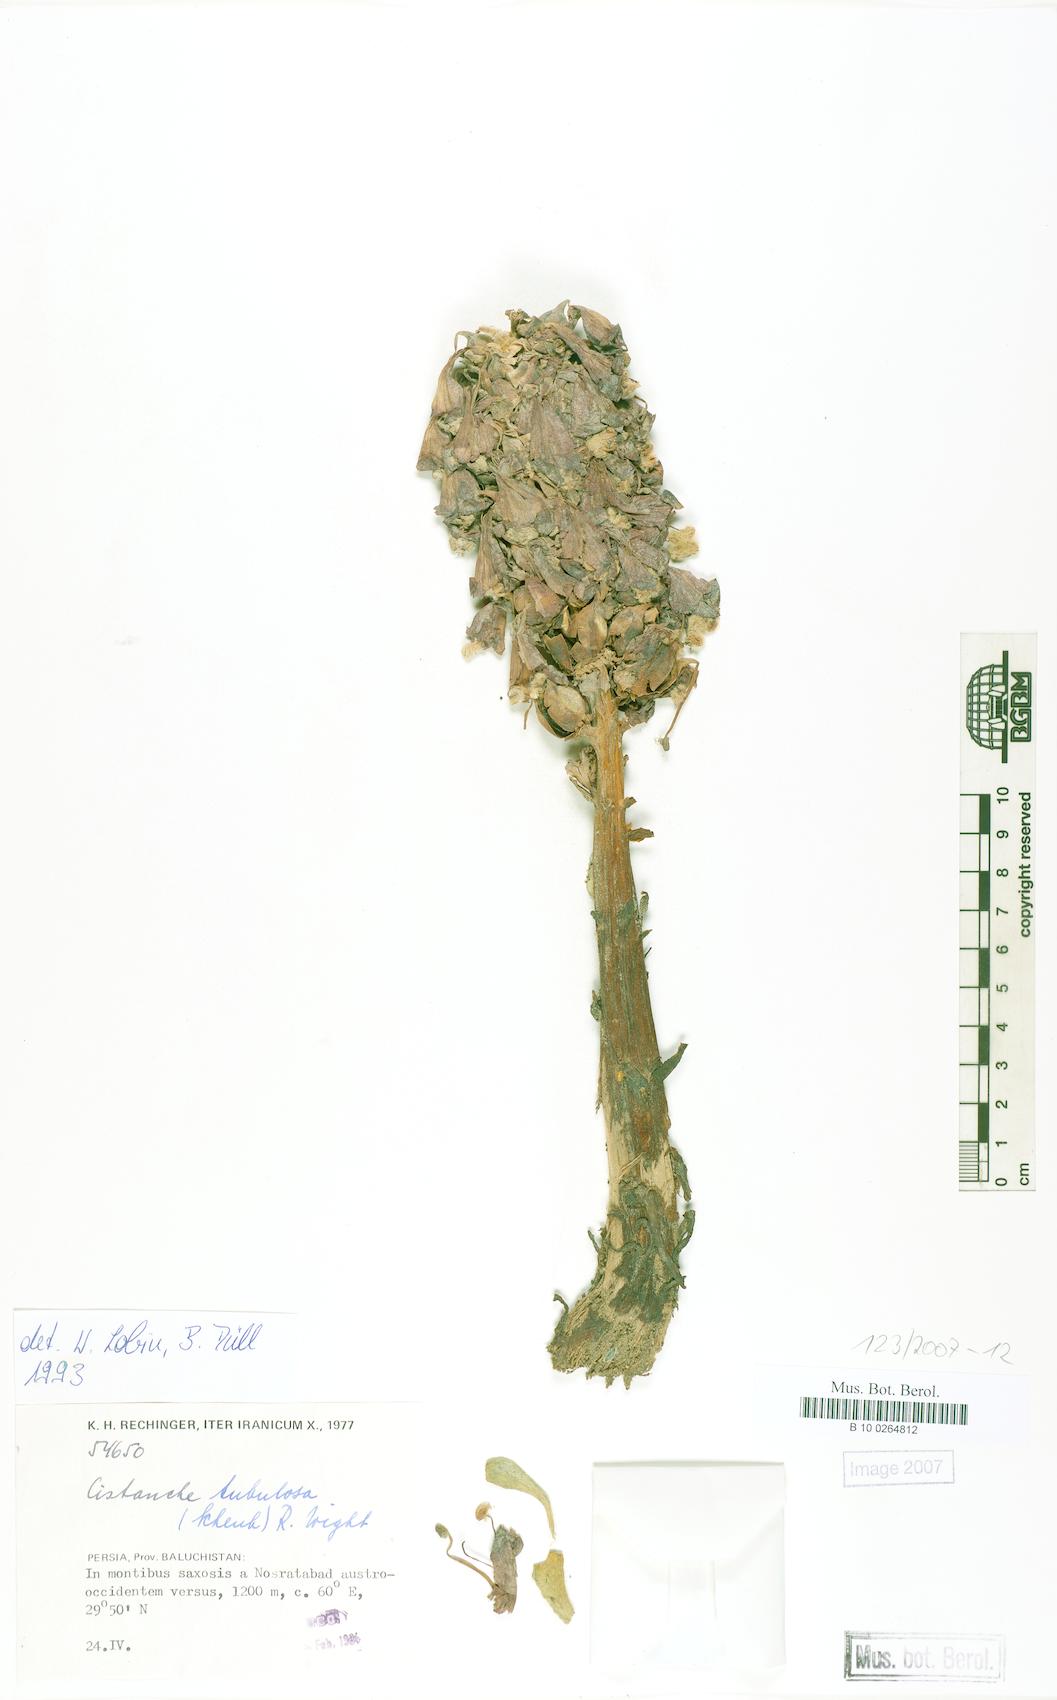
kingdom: Plantae
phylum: Tracheophyta
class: Magnoliopsida
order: Lamiales
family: Orobanchaceae
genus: Cistanche
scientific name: Cistanche tubulosa
